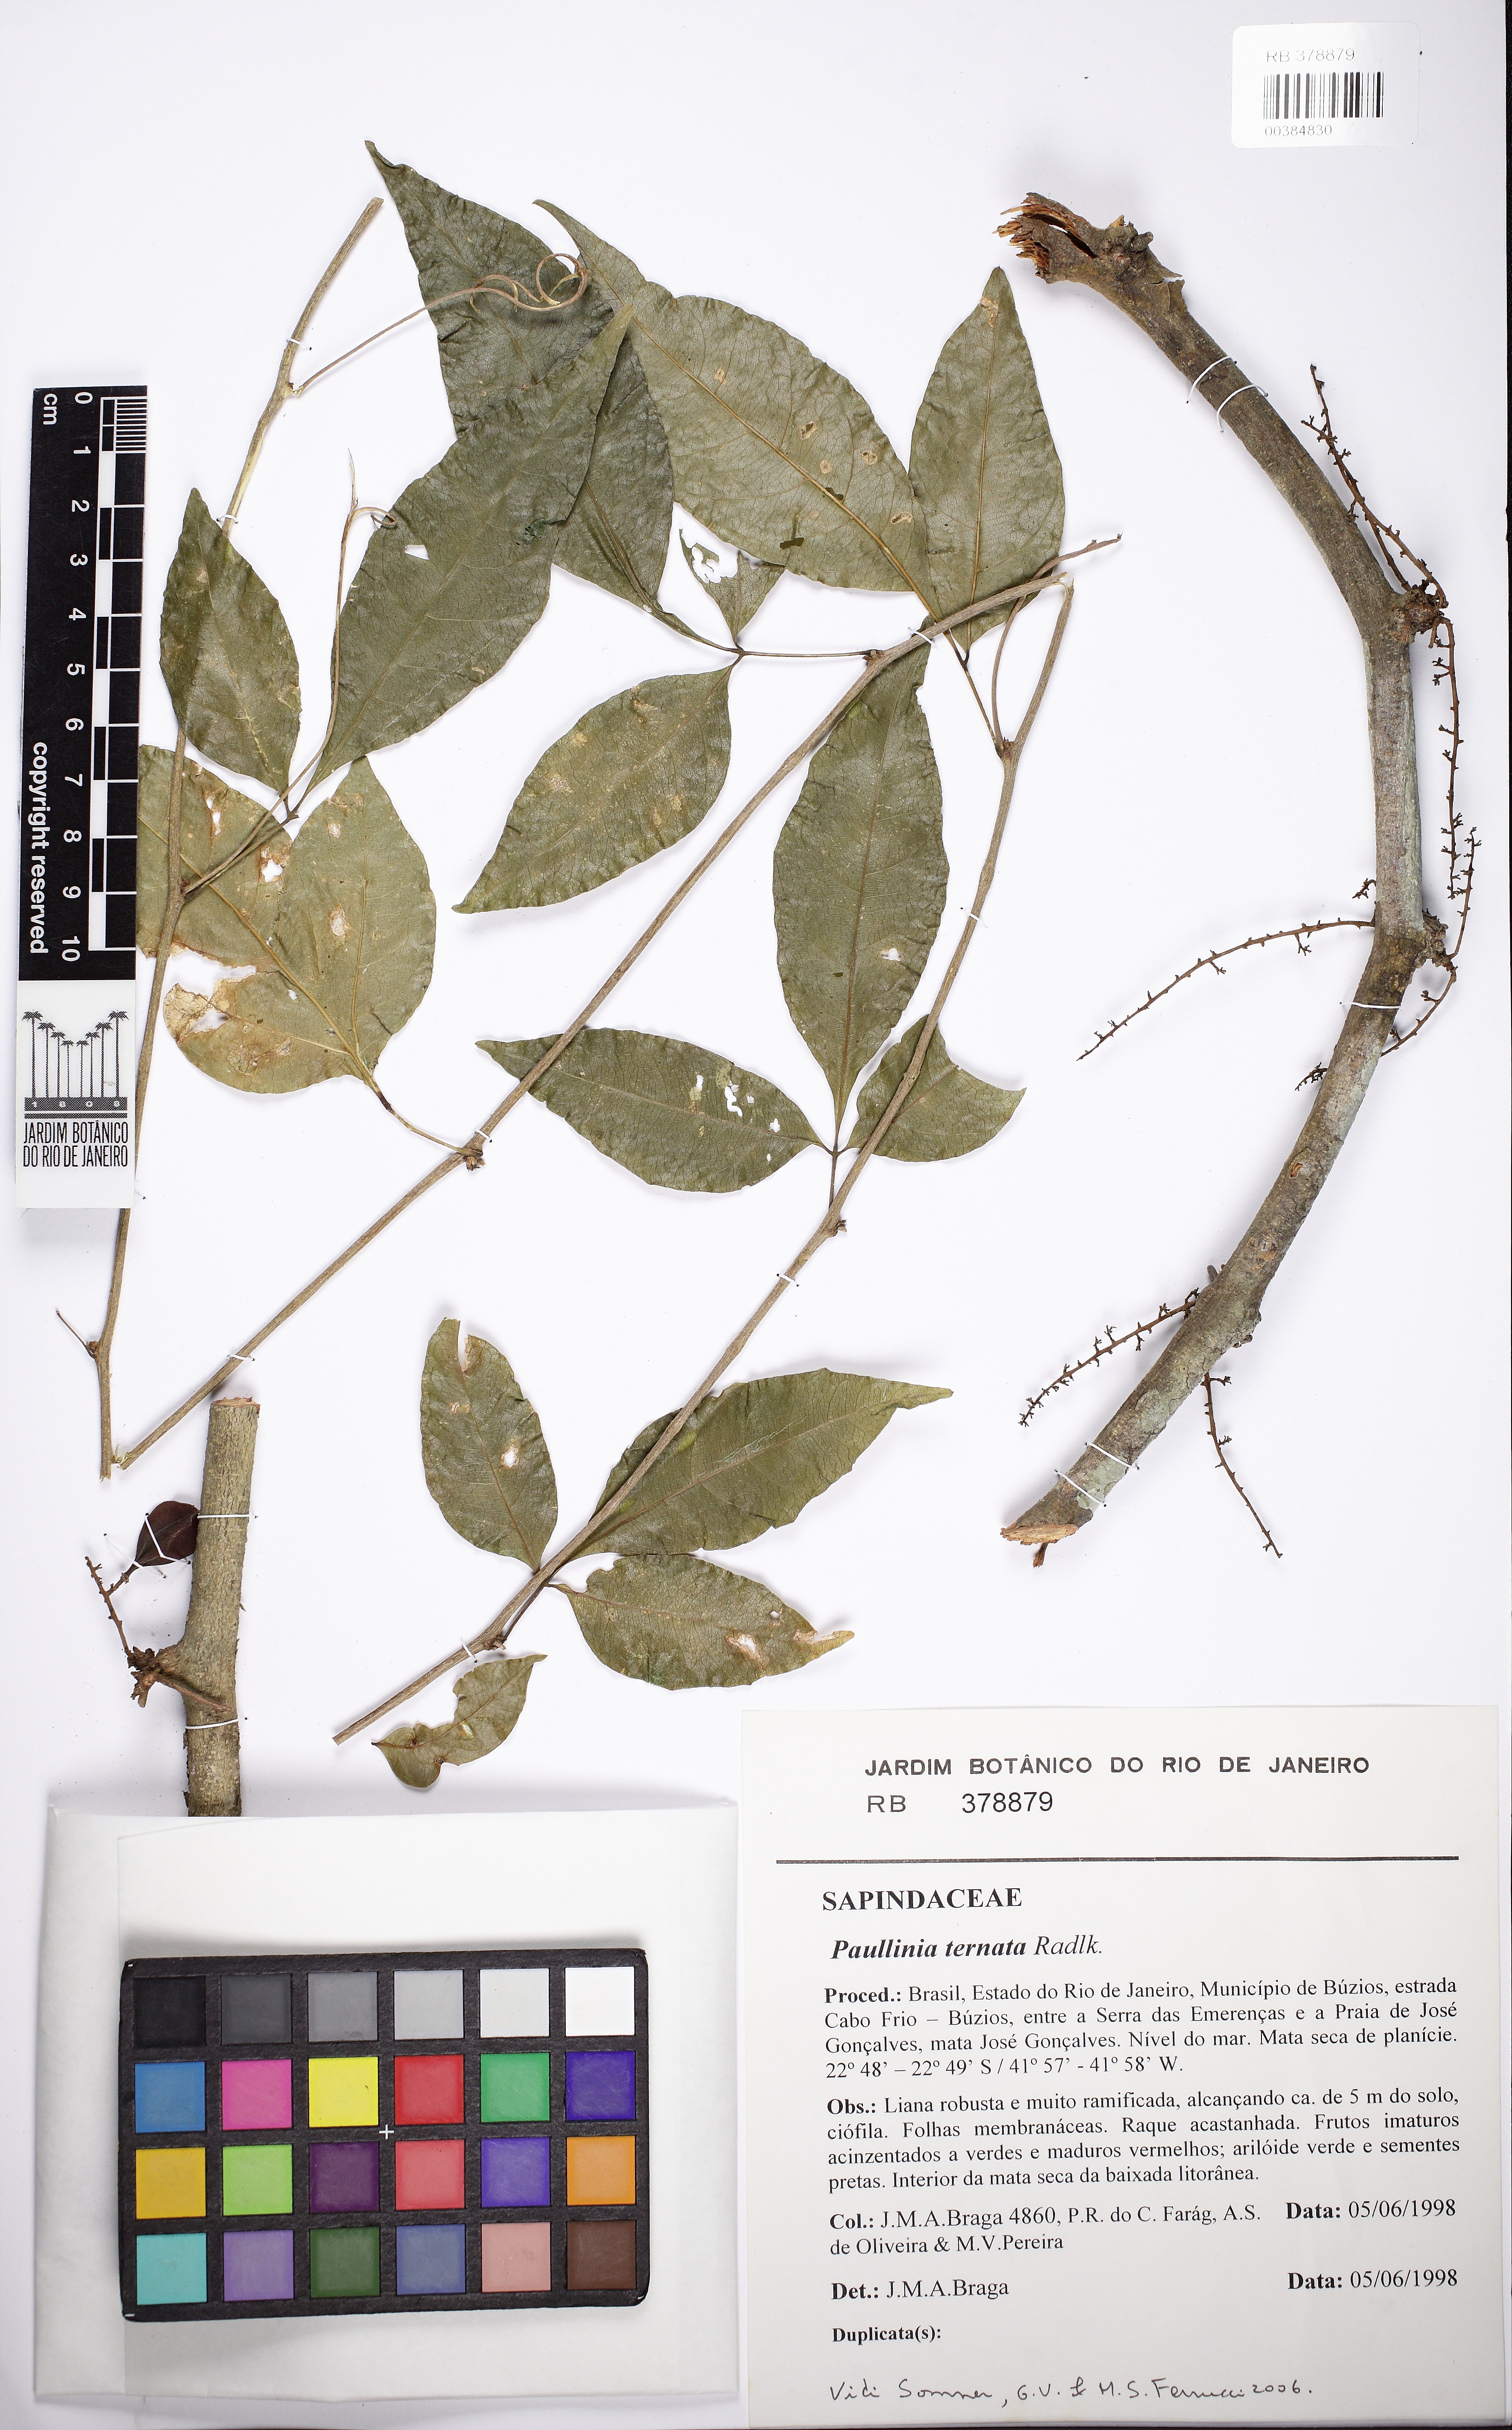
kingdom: Plantae
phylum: Tracheophyta
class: Magnoliopsida
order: Sapindales
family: Sapindaceae
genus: Paullinia
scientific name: Paullinia ternata
